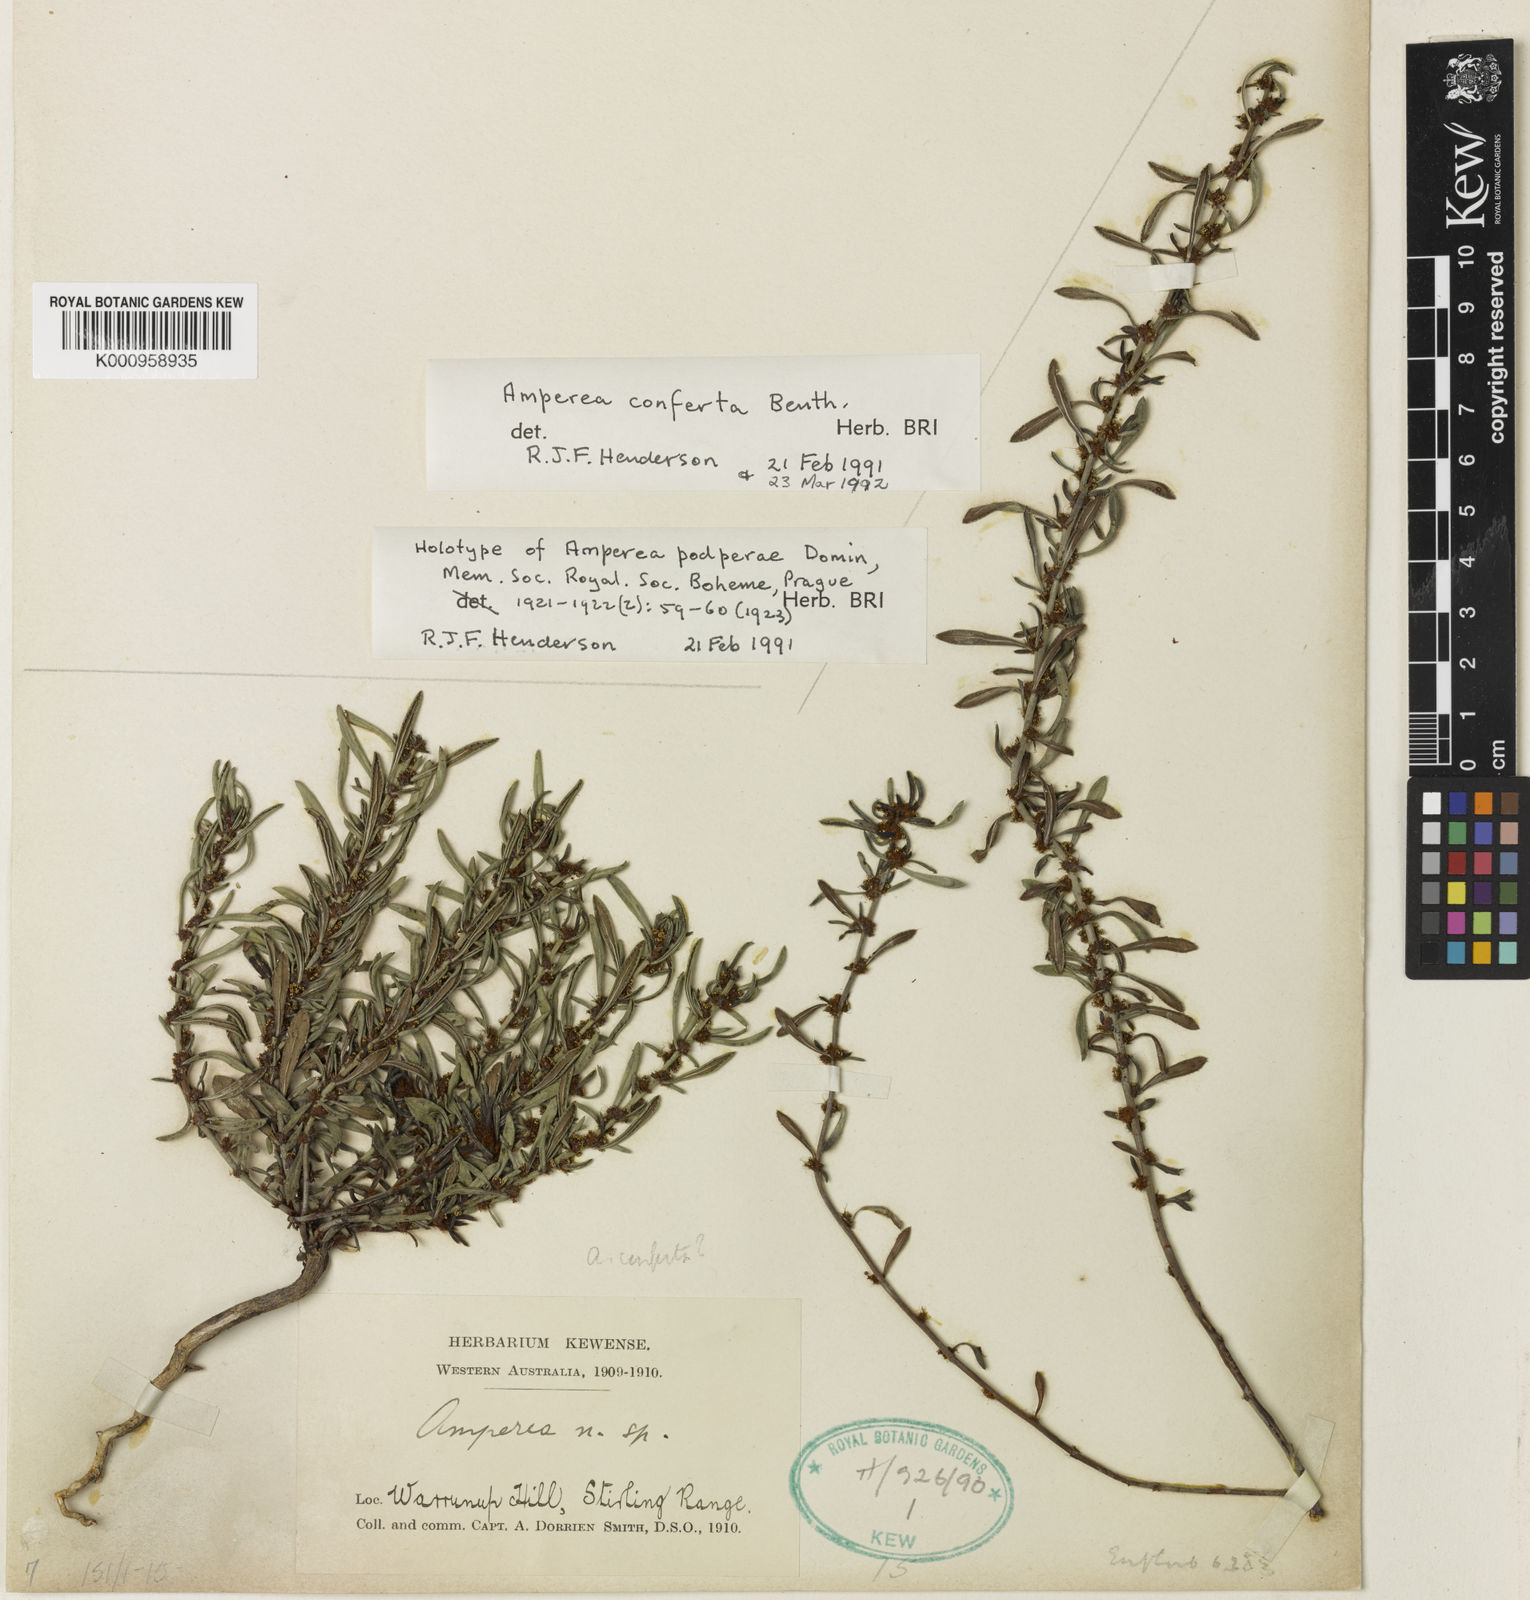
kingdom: Plantae
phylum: Tracheophyta
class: Magnoliopsida
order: Malpighiales
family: Euphorbiaceae
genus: Amperea
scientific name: Amperea ericoides
